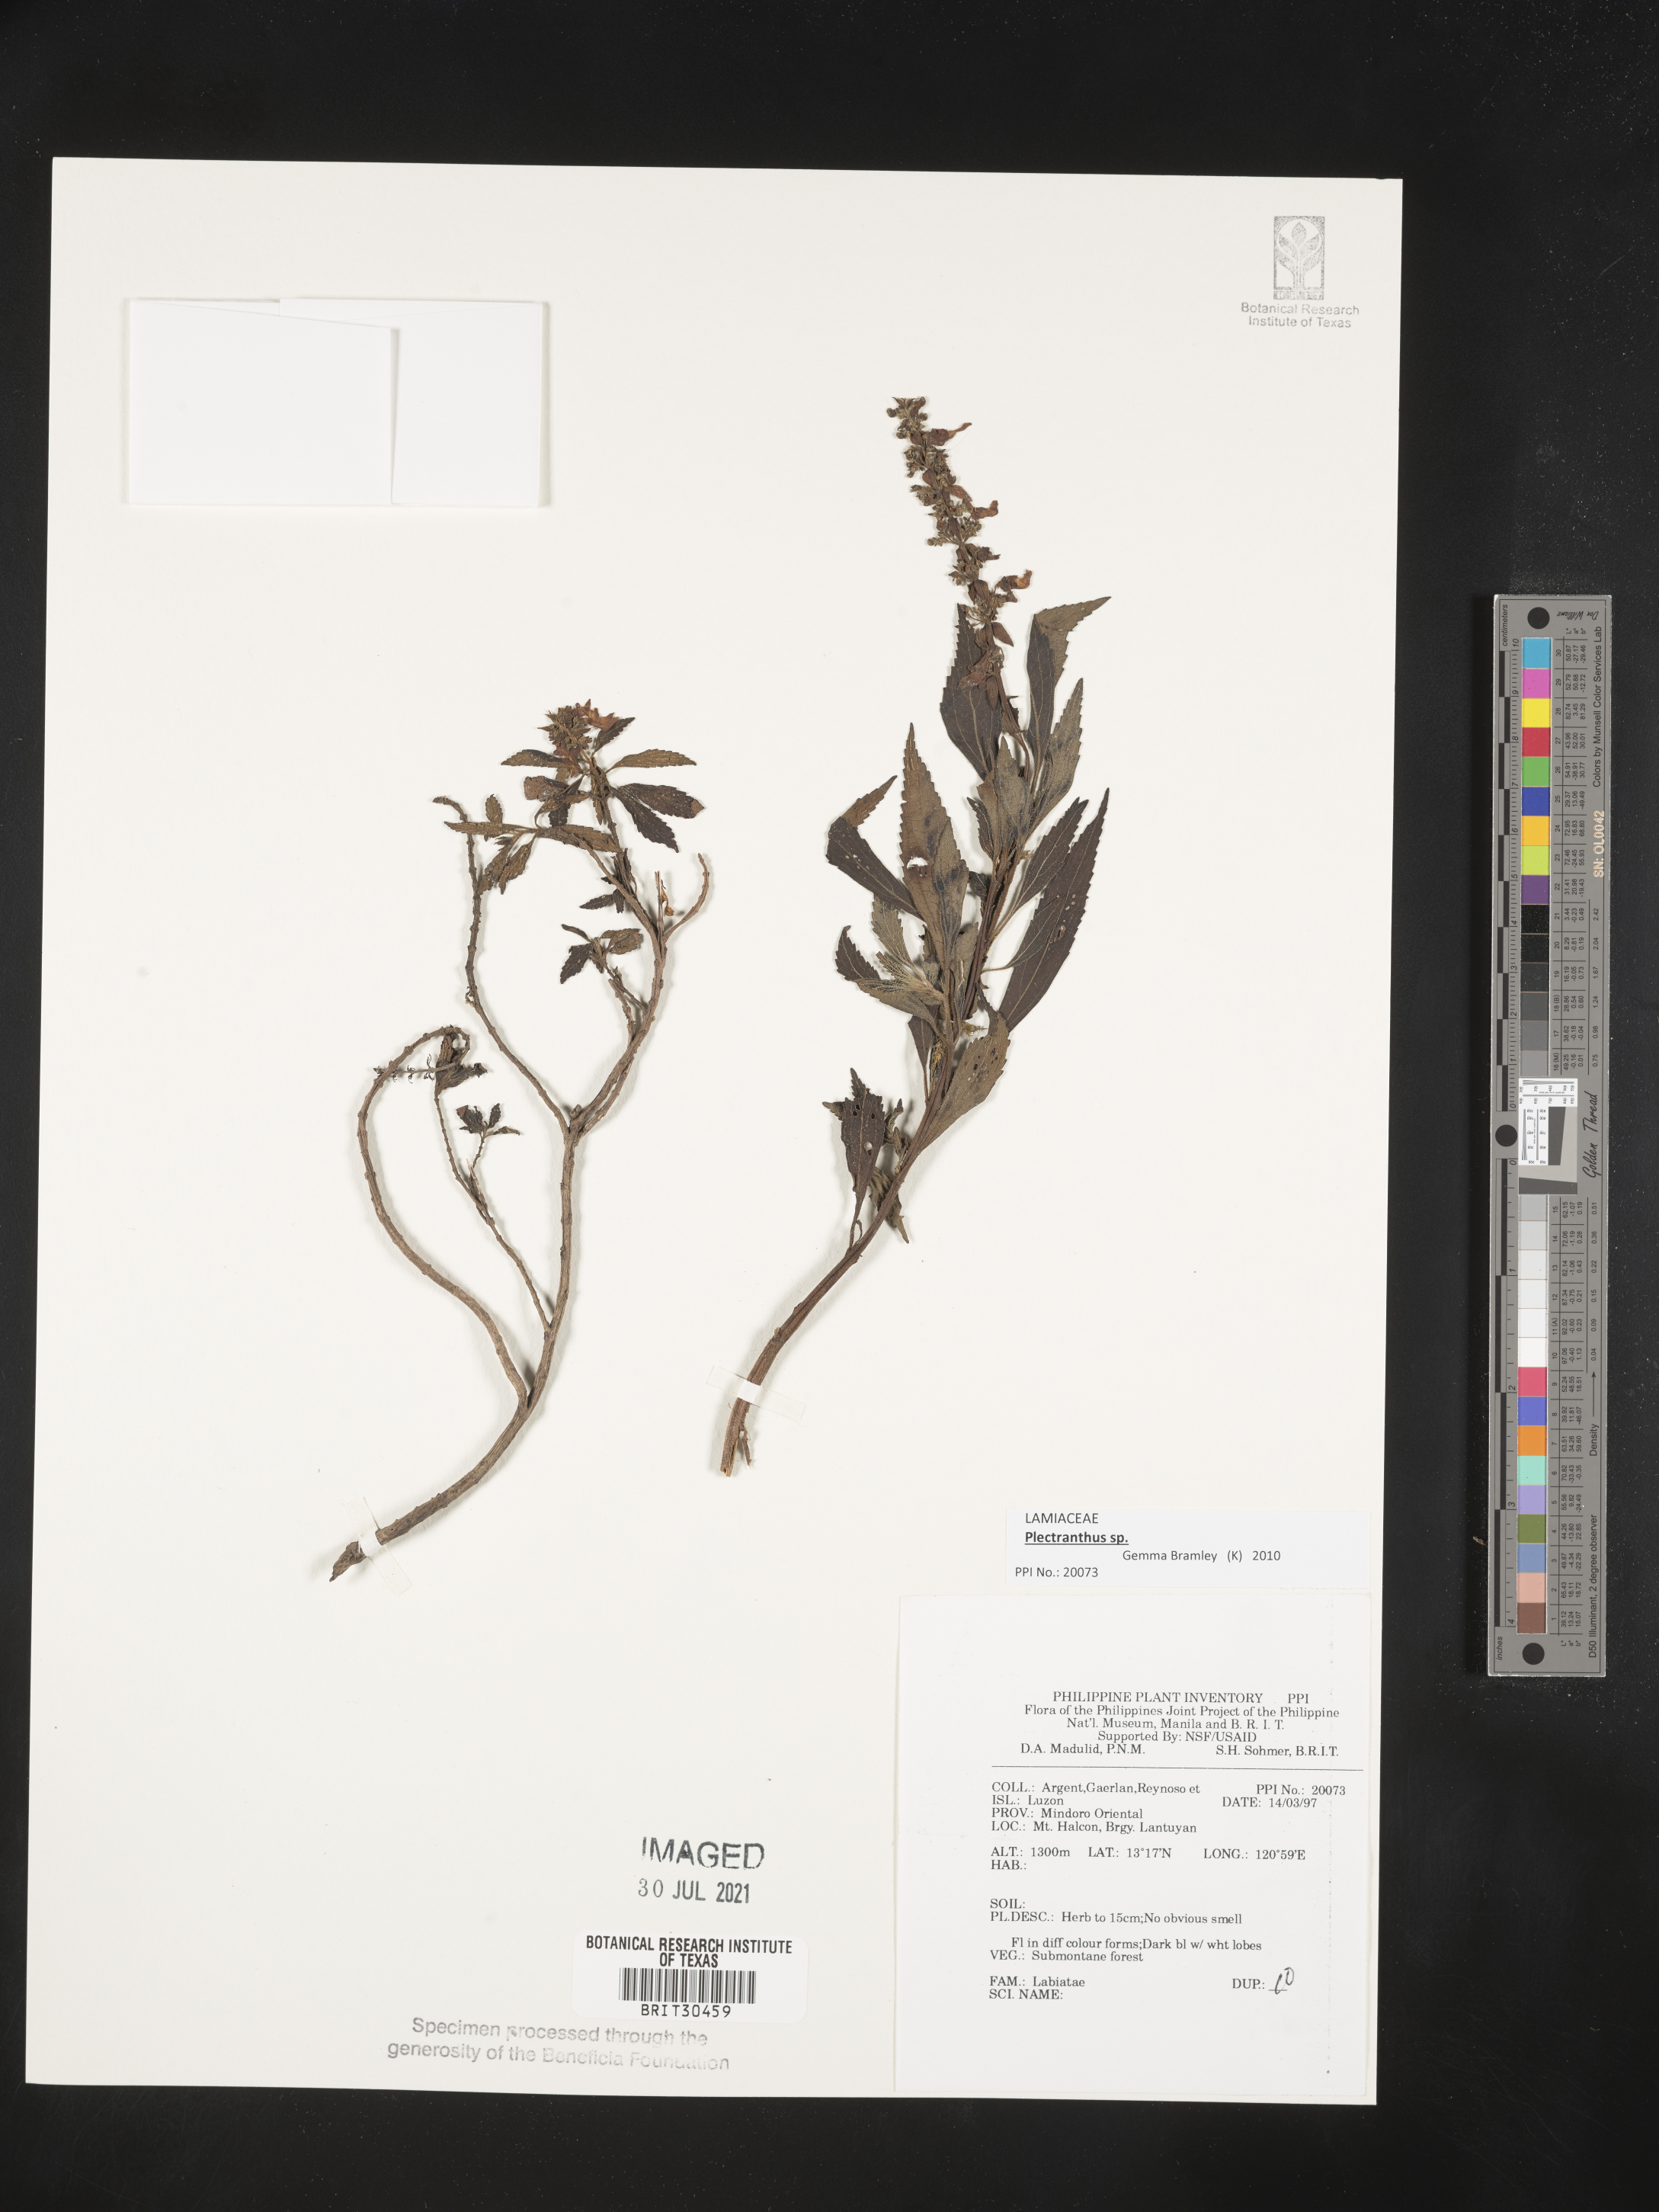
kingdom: Plantae
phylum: Tracheophyta
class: Magnoliopsida
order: Lamiales
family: Lamiaceae
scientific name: Lamiaceae
